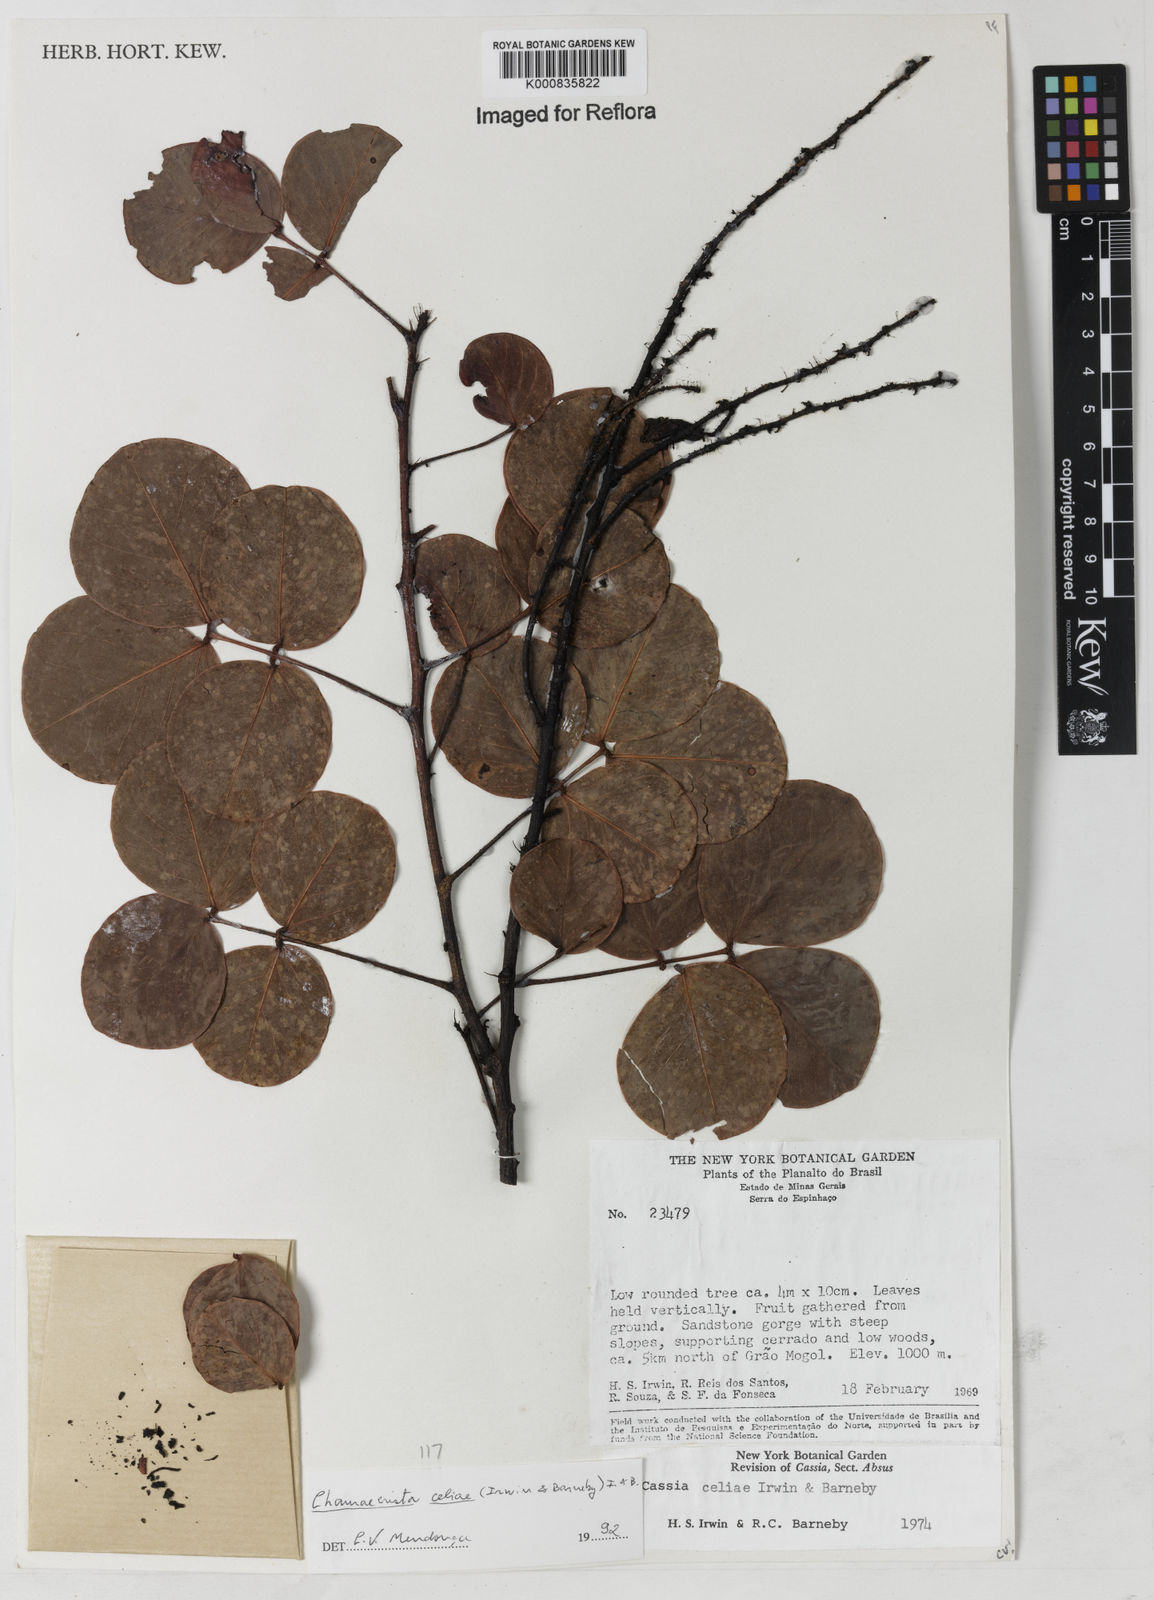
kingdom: Plantae
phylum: Tracheophyta
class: Magnoliopsida
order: Fabales
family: Fabaceae
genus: Chamaecrista
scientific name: Chamaecrista celiae
